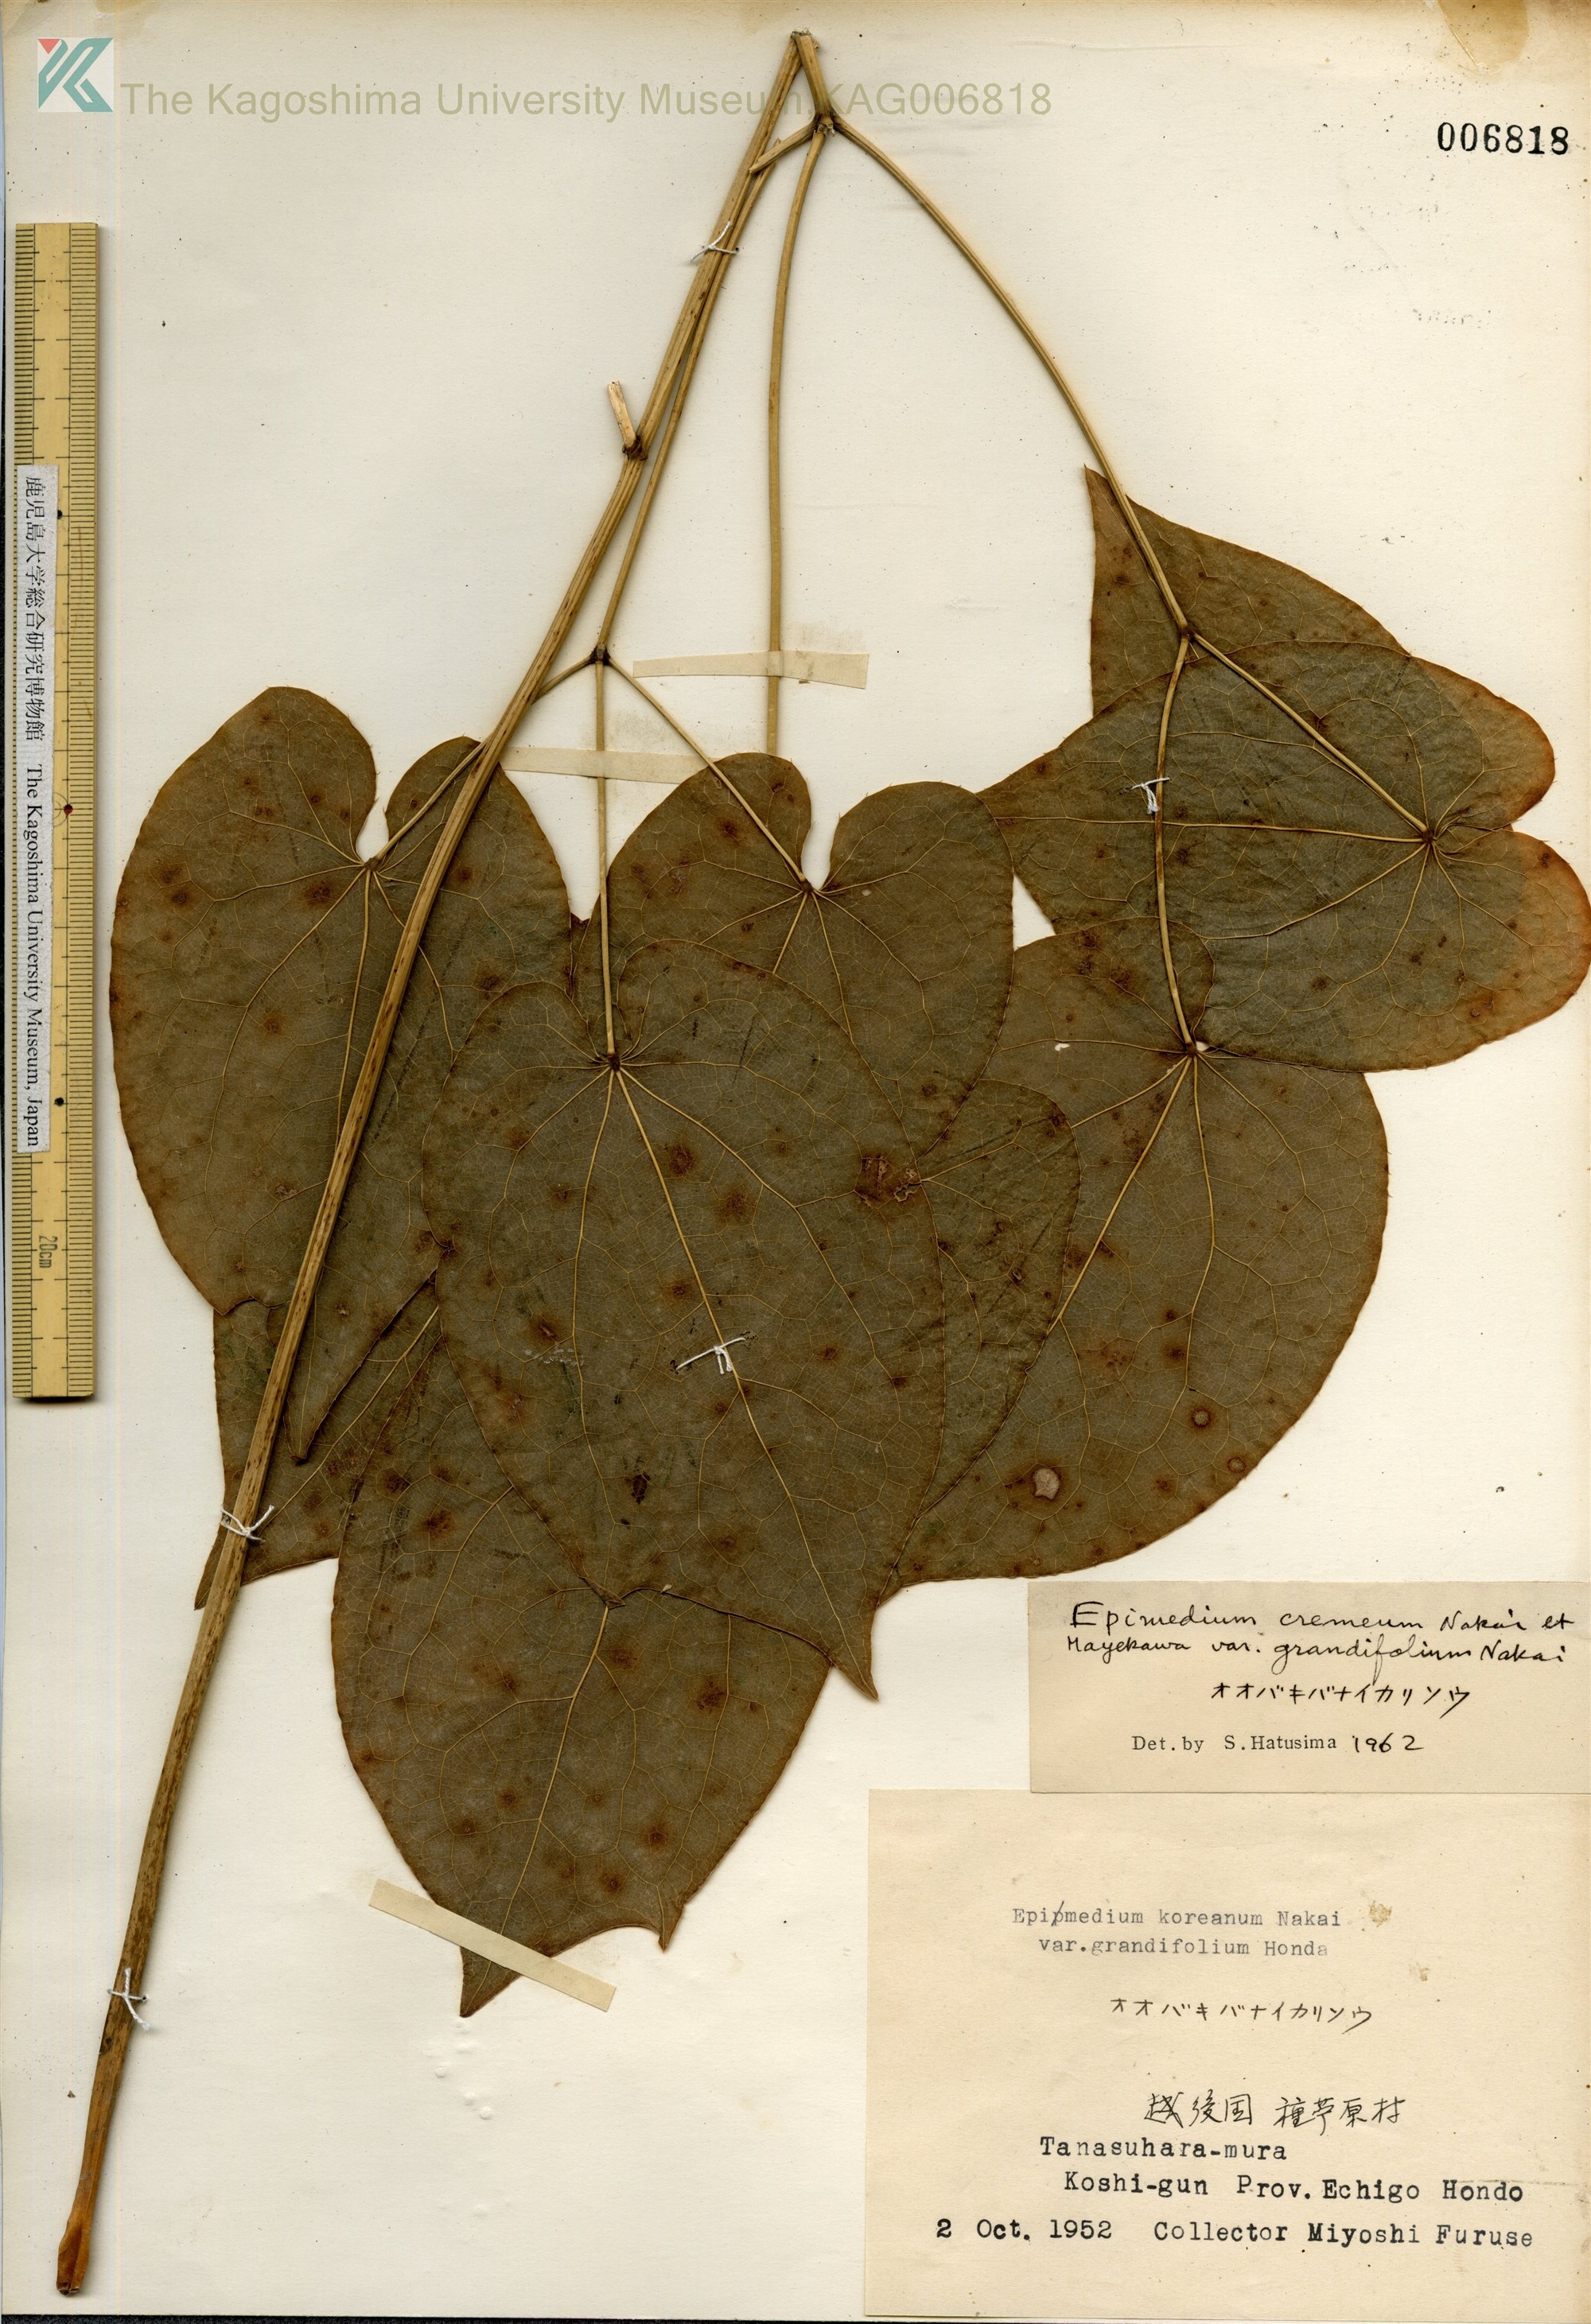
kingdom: Plantae
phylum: Tracheophyta
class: Magnoliopsida
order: Ranunculales
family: Berberidaceae
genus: Epimedium
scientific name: Epimedium koreanum
